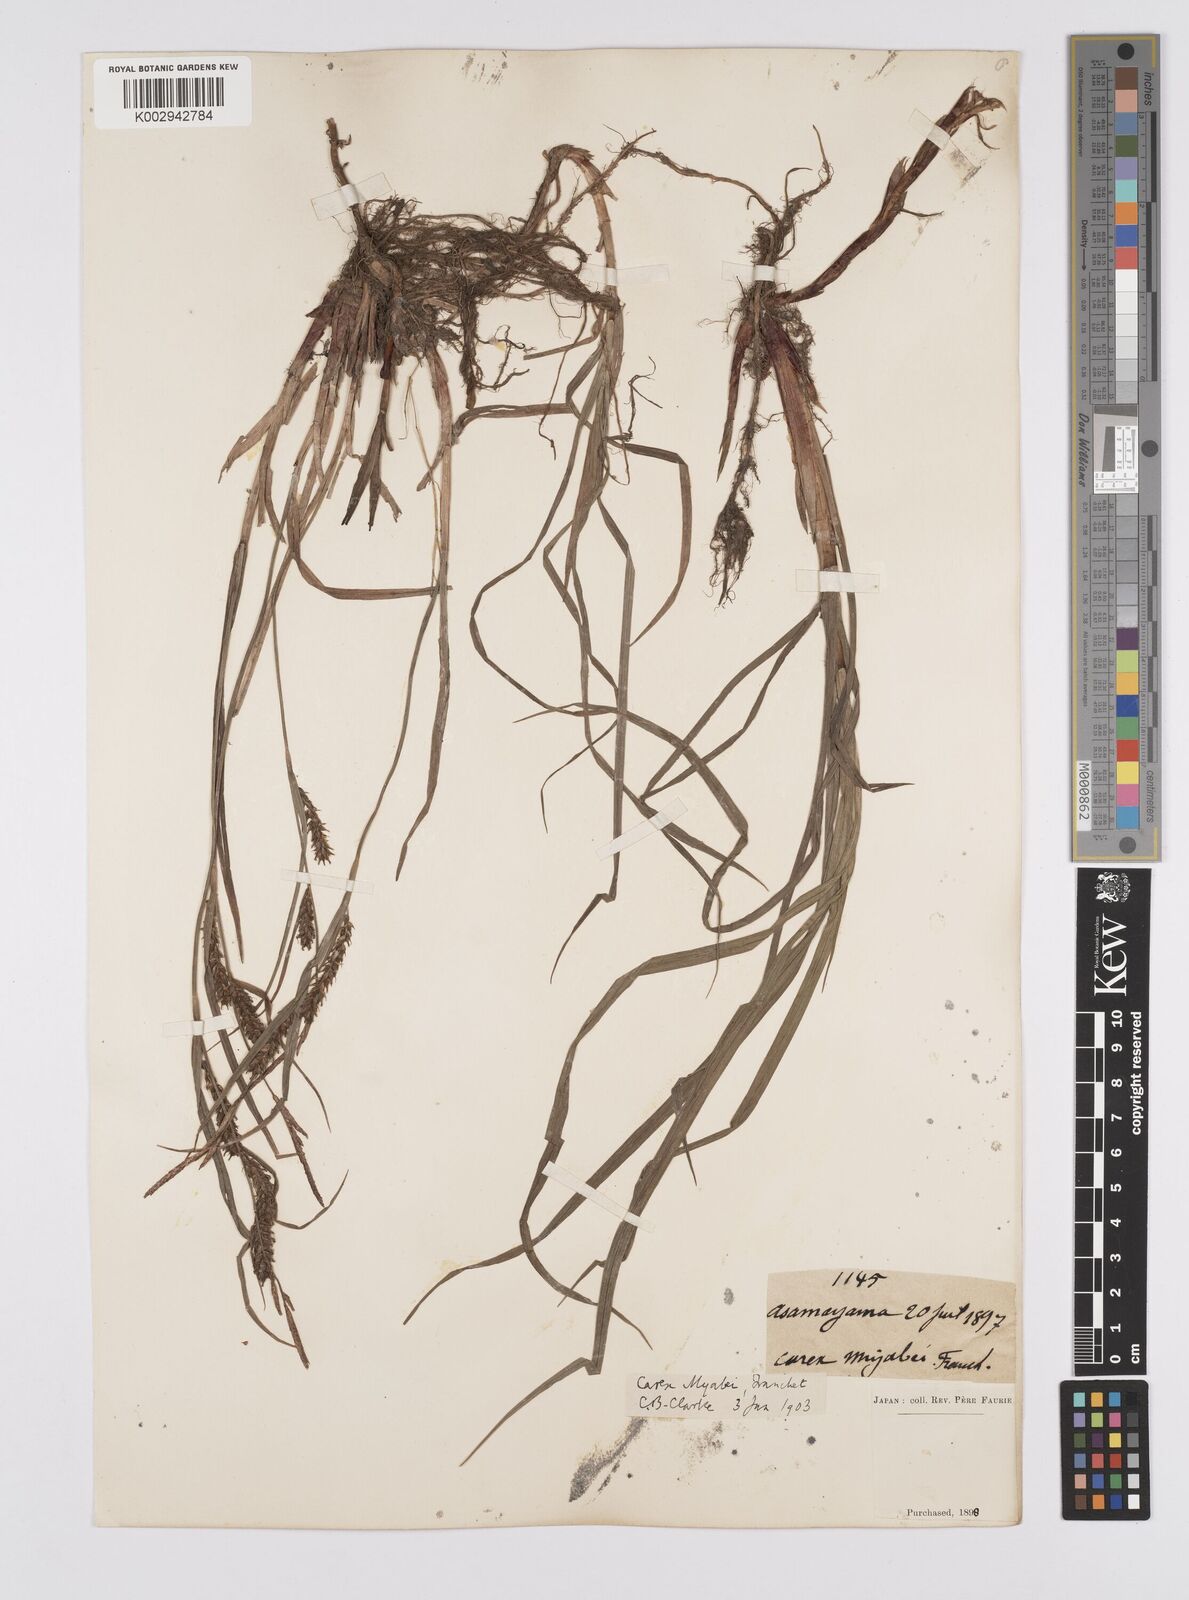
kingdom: Plantae
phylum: Tracheophyta
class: Liliopsida
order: Poales
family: Cyperaceae
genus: Carex
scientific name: Carex fedia
